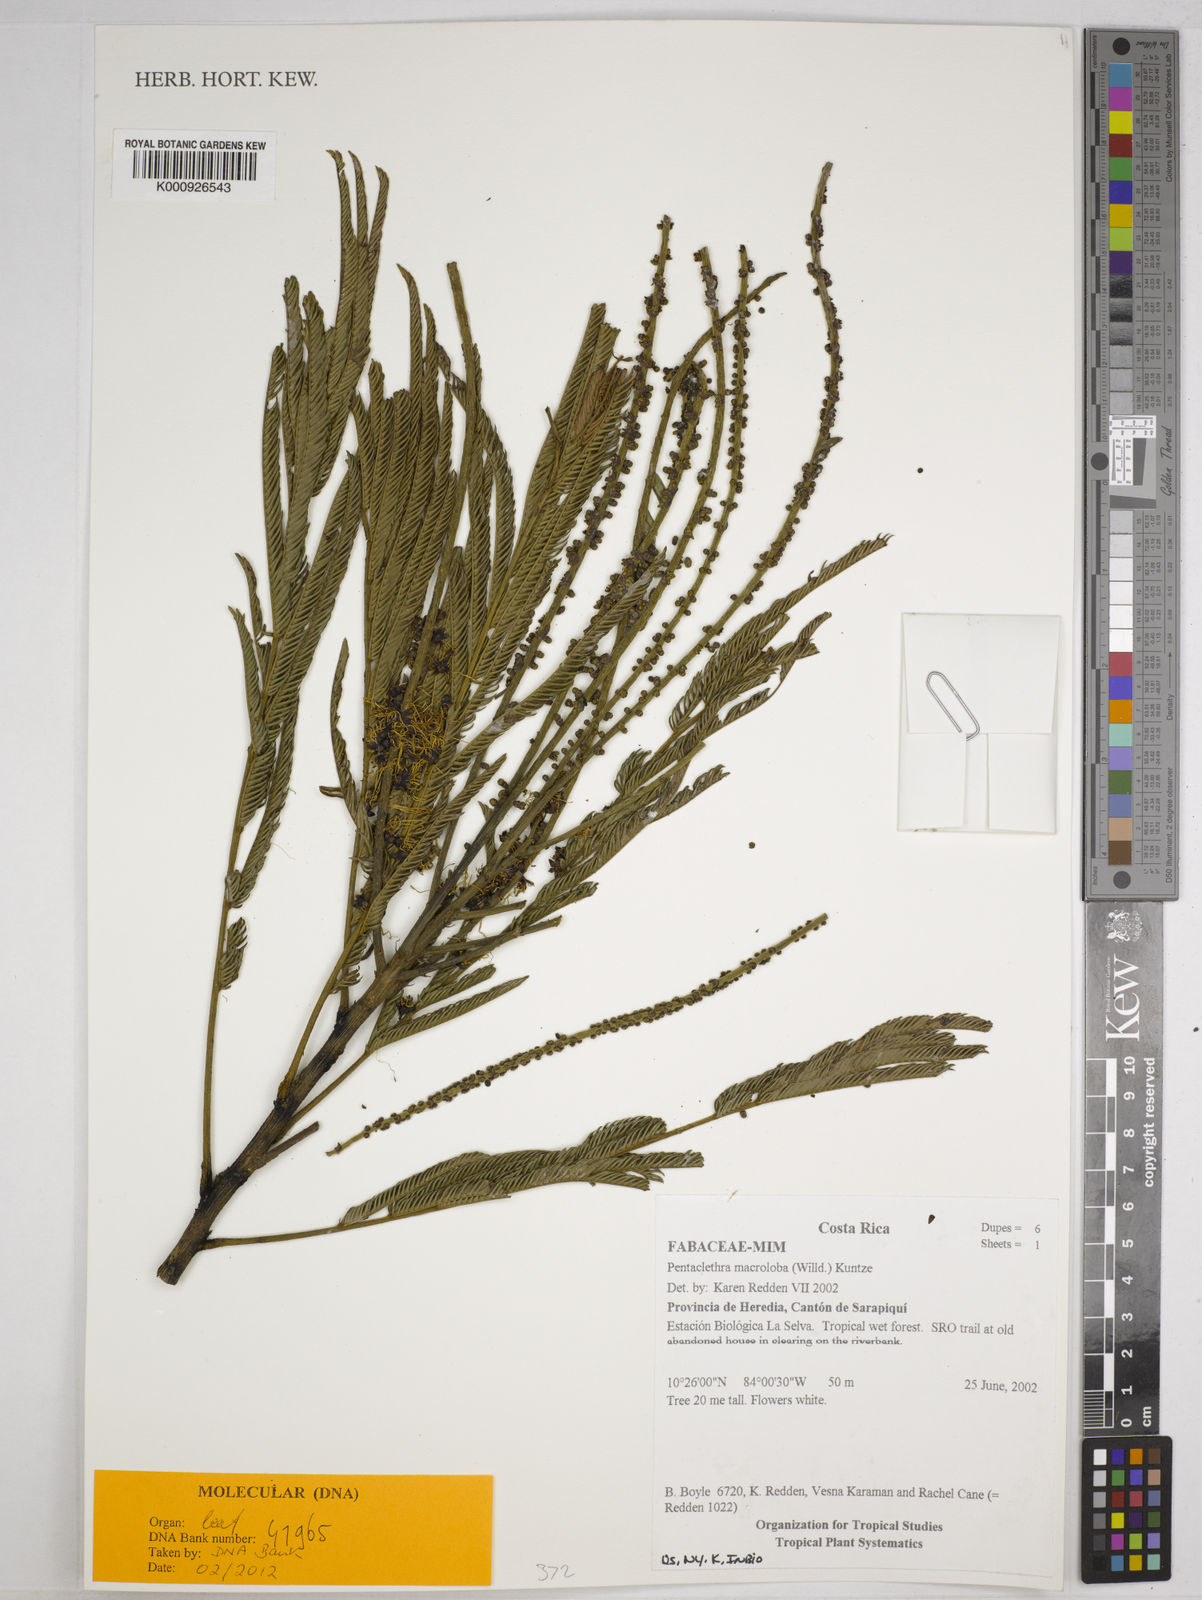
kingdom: Plantae
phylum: Tracheophyta
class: Magnoliopsida
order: Fabales
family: Fabaceae
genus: Pentaclethra
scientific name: Pentaclethra macroloba
